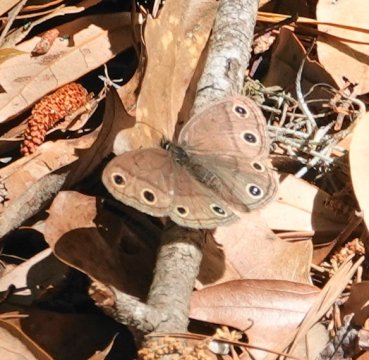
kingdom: Animalia
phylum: Arthropoda
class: Insecta
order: Lepidoptera
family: Nymphalidae
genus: Euptychia
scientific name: Euptychia cymela
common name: Little Wood Satyr
